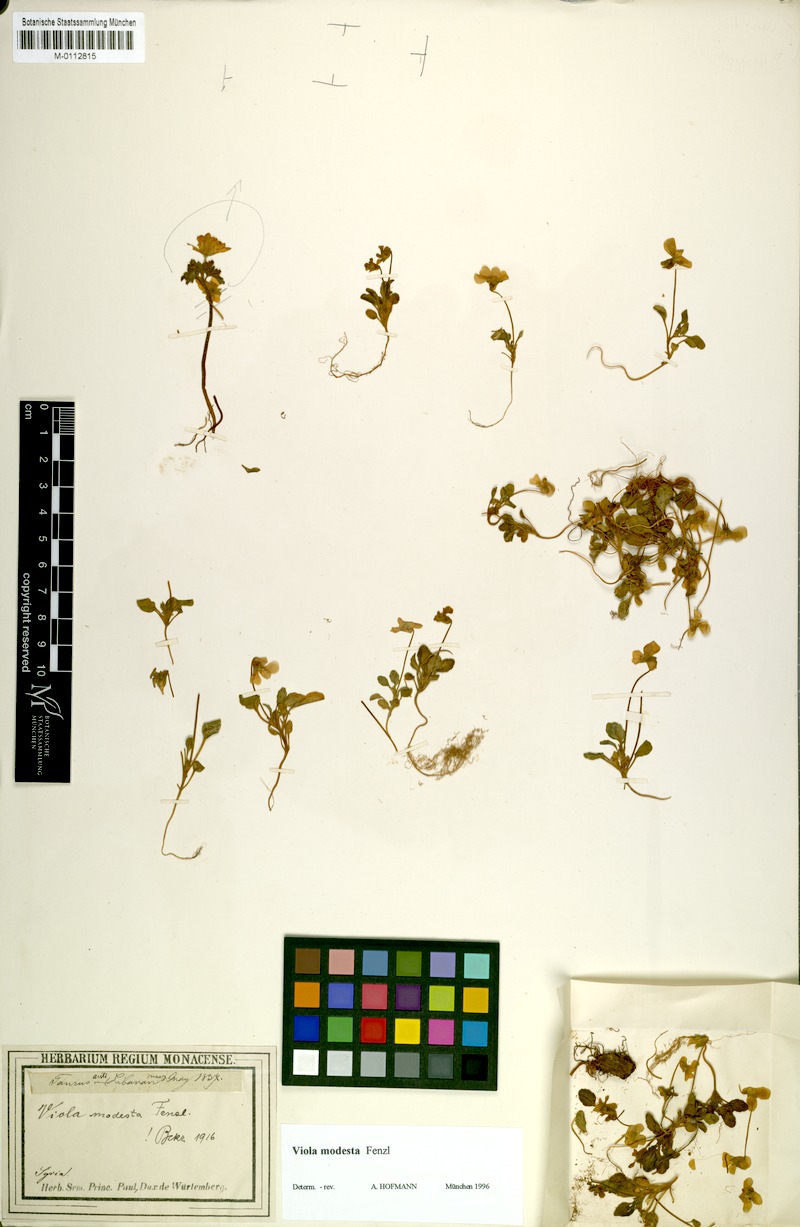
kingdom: Plantae
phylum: Tracheophyta
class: Magnoliopsida
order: Malpighiales
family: Violaceae
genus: Viola
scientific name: Viola modesta
